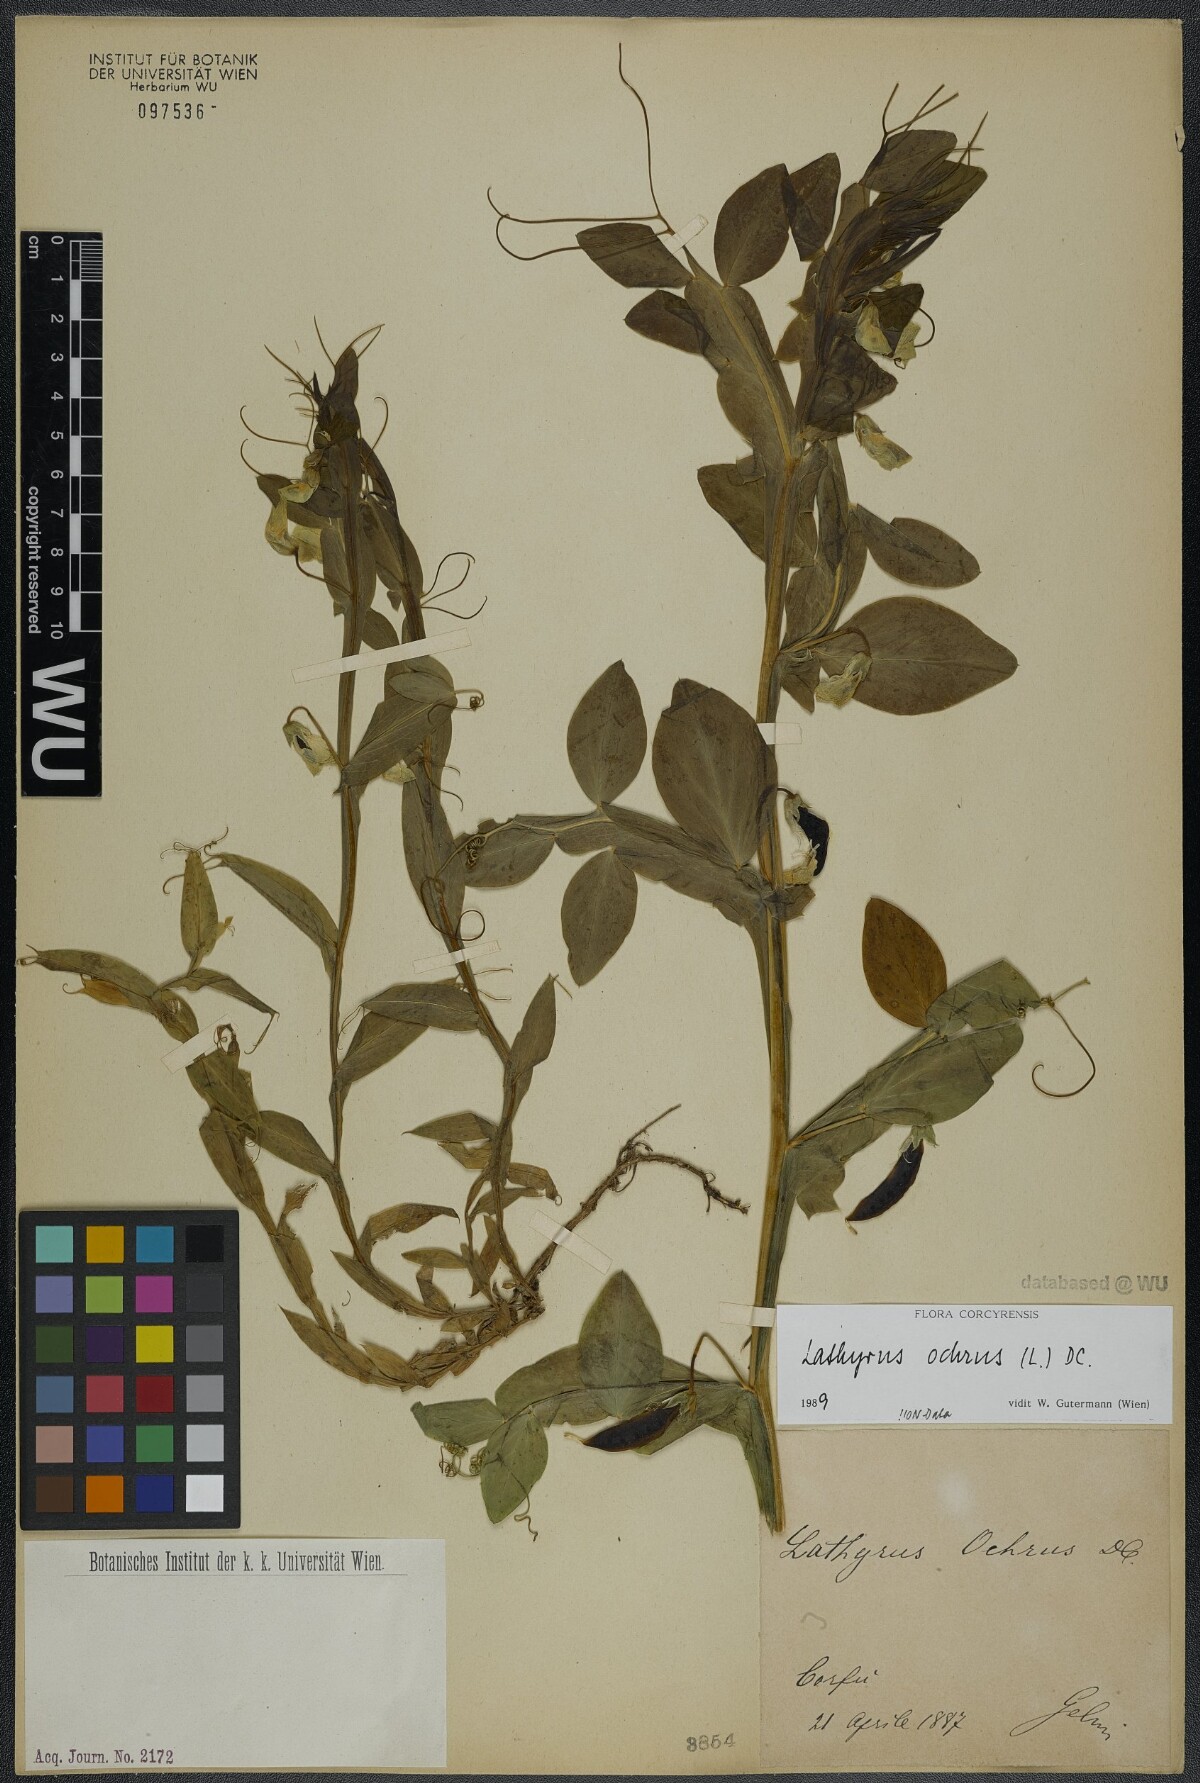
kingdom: Plantae
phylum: Tracheophyta
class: Magnoliopsida
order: Fabales
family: Fabaceae
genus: Lathyrus
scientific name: Lathyrus ochrus
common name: Winged vetchling
